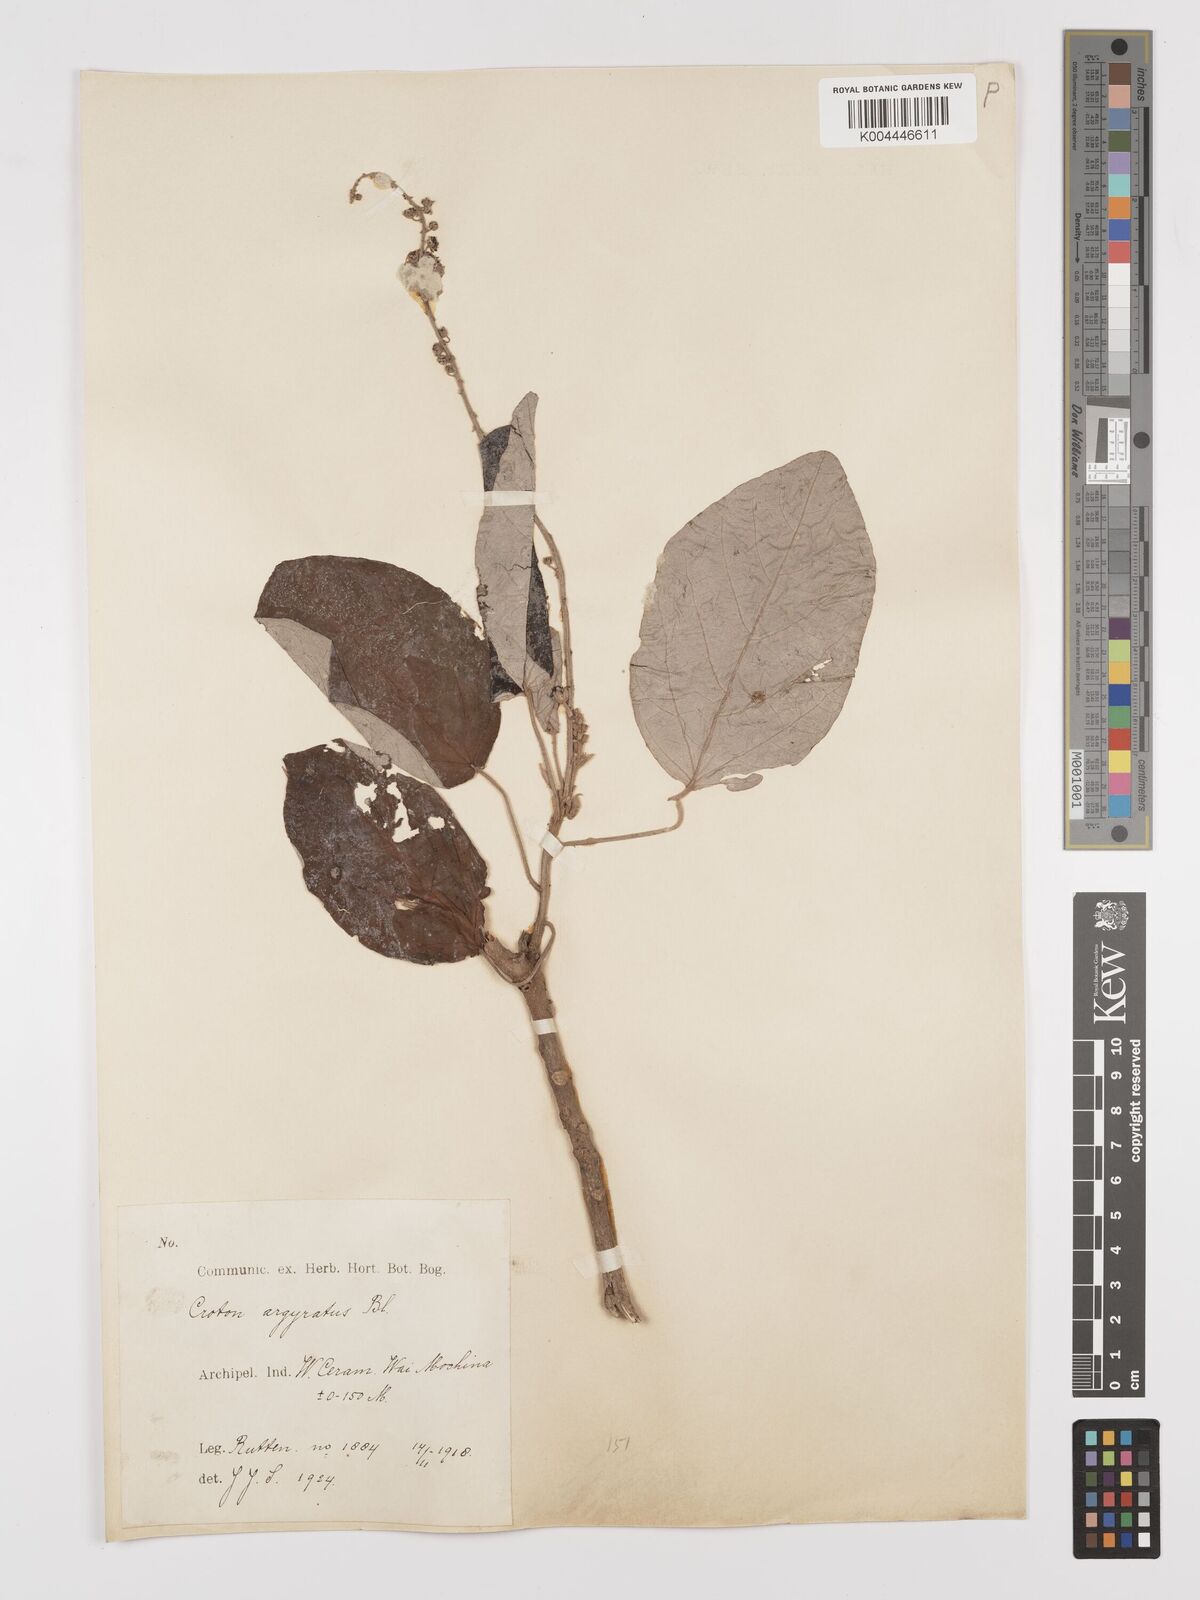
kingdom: Plantae
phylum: Tracheophyta
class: Magnoliopsida
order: Malpighiales
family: Euphorbiaceae
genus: Croton
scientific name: Croton argyratus
